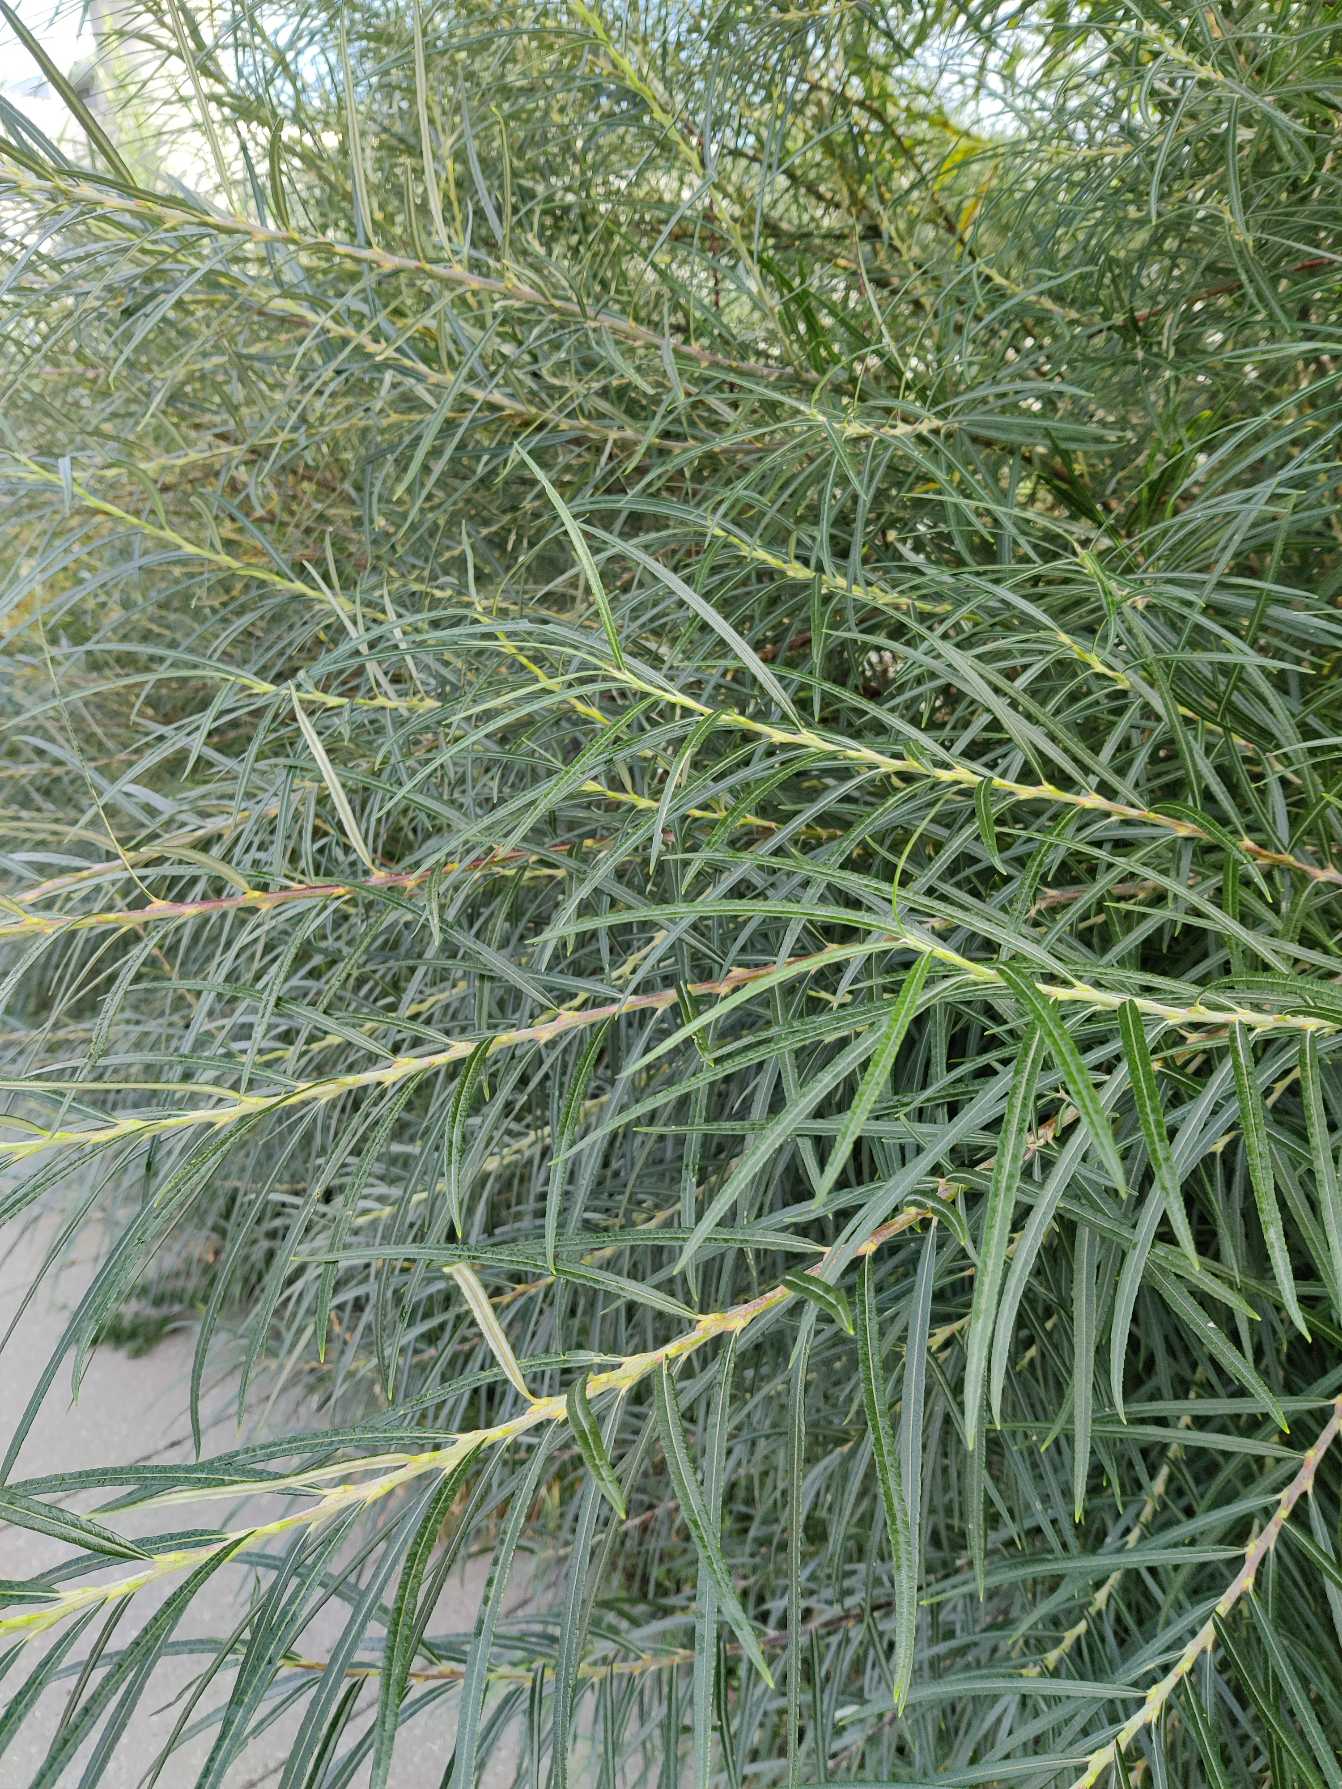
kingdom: Plantae
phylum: Tracheophyta
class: Magnoliopsida
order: Malpighiales
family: Salicaceae
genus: Salix
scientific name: Salix eleagnos
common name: Flod-pil
